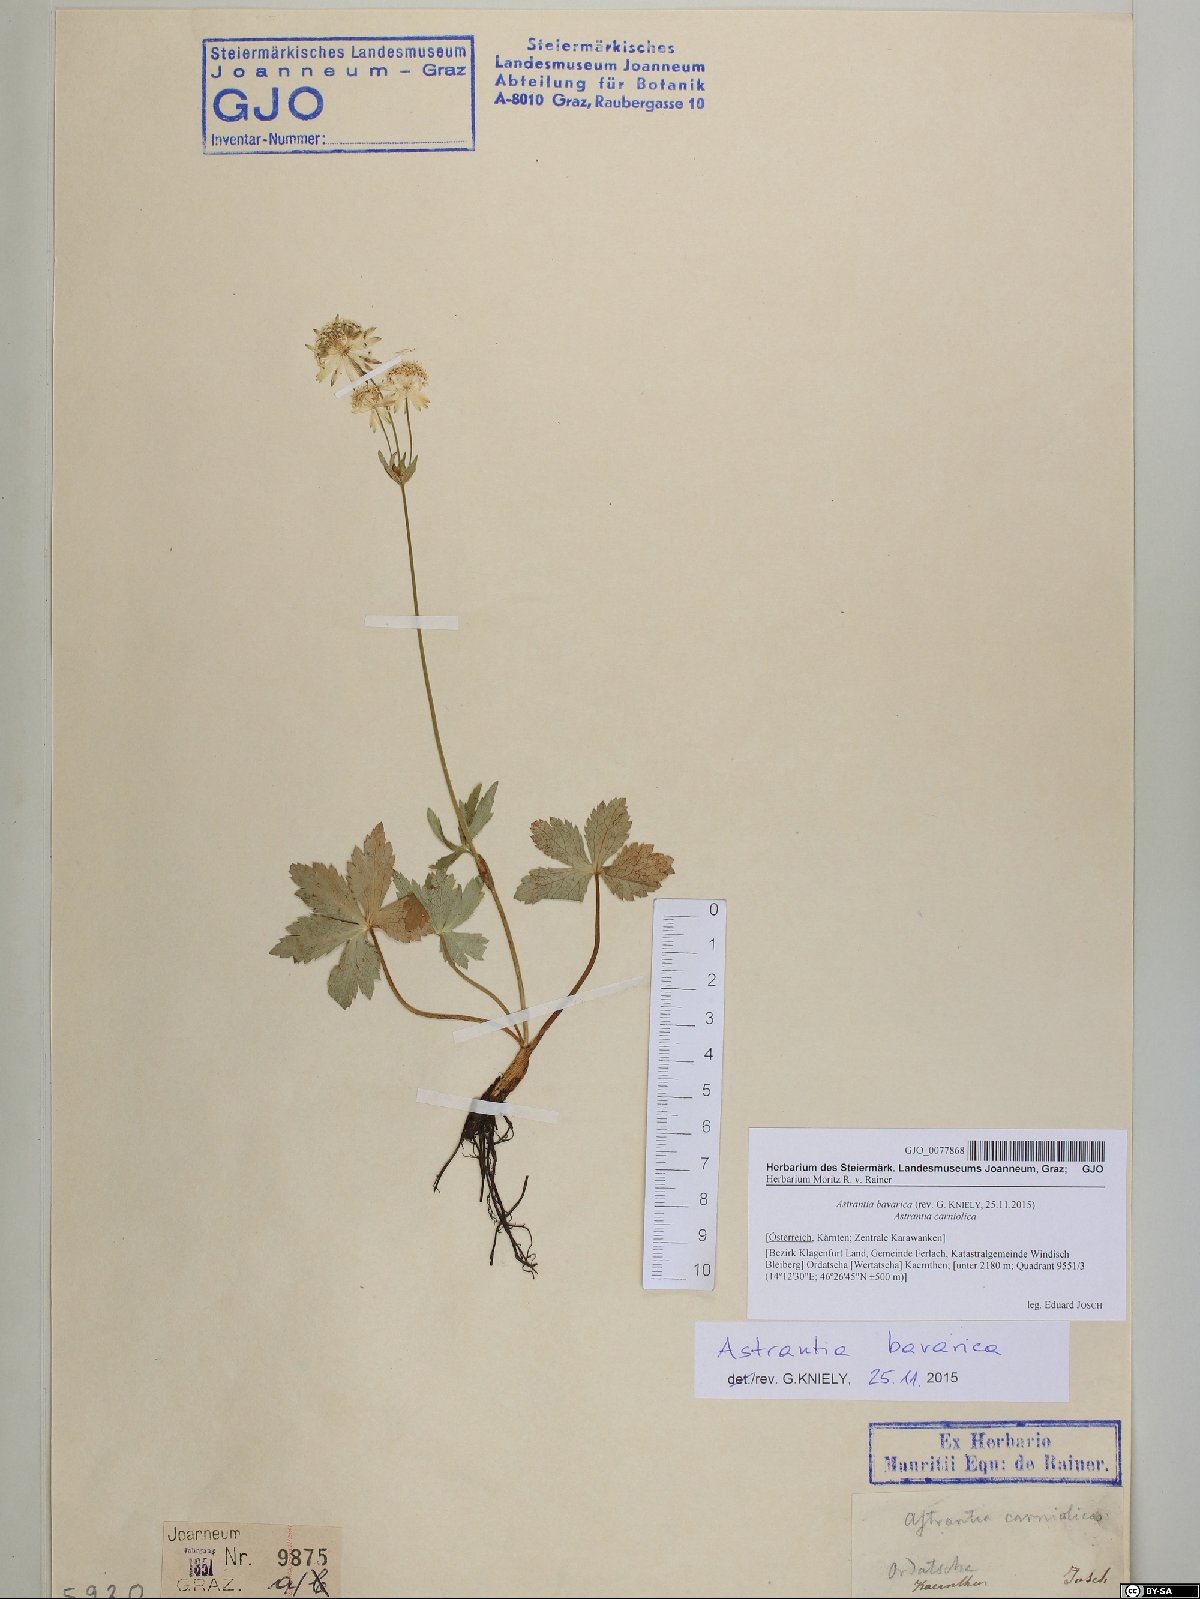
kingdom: Plantae
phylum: Tracheophyta
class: Magnoliopsida
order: Apiales
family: Apiaceae
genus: Astrantia
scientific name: Astrantia bavarica
